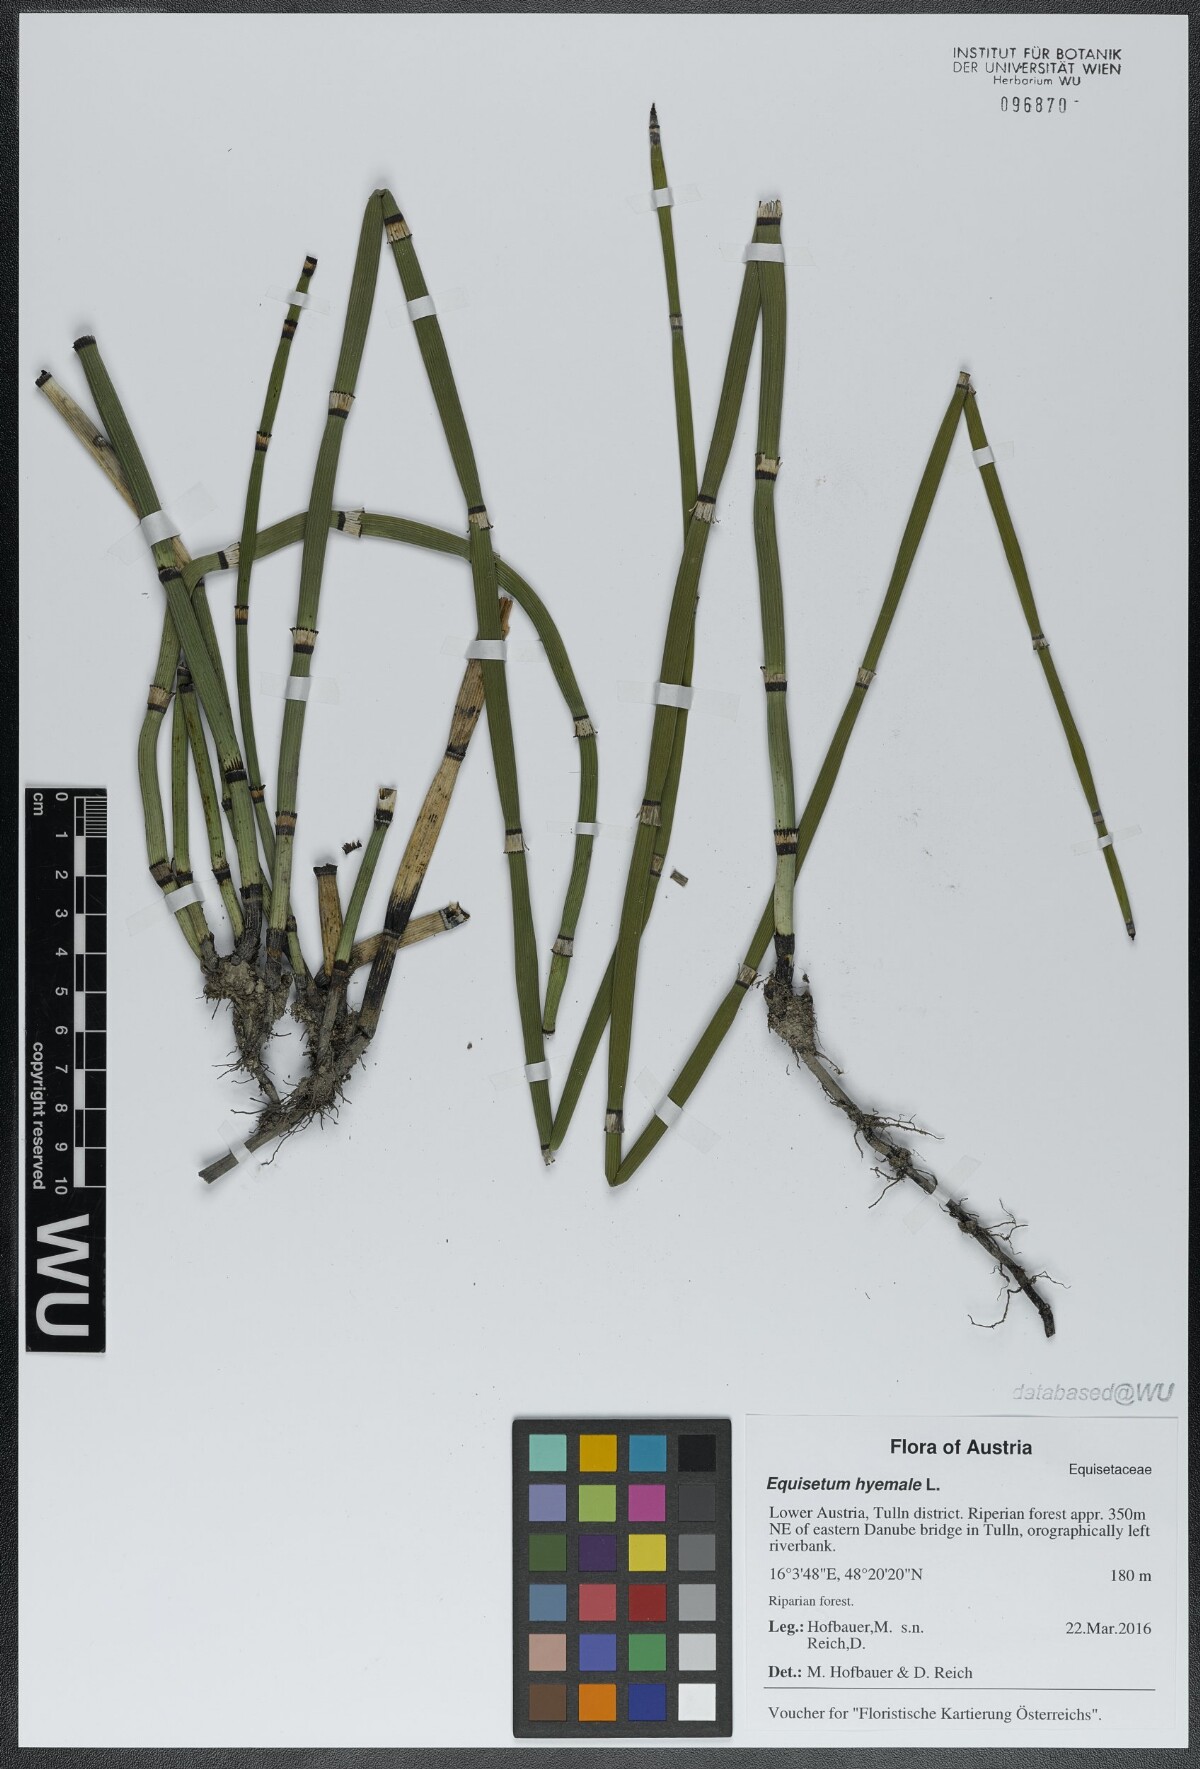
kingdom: Plantae
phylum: Tracheophyta
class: Polypodiopsida
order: Equisetales
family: Equisetaceae
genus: Equisetum
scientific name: Equisetum hyemale
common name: Rough horsetail
